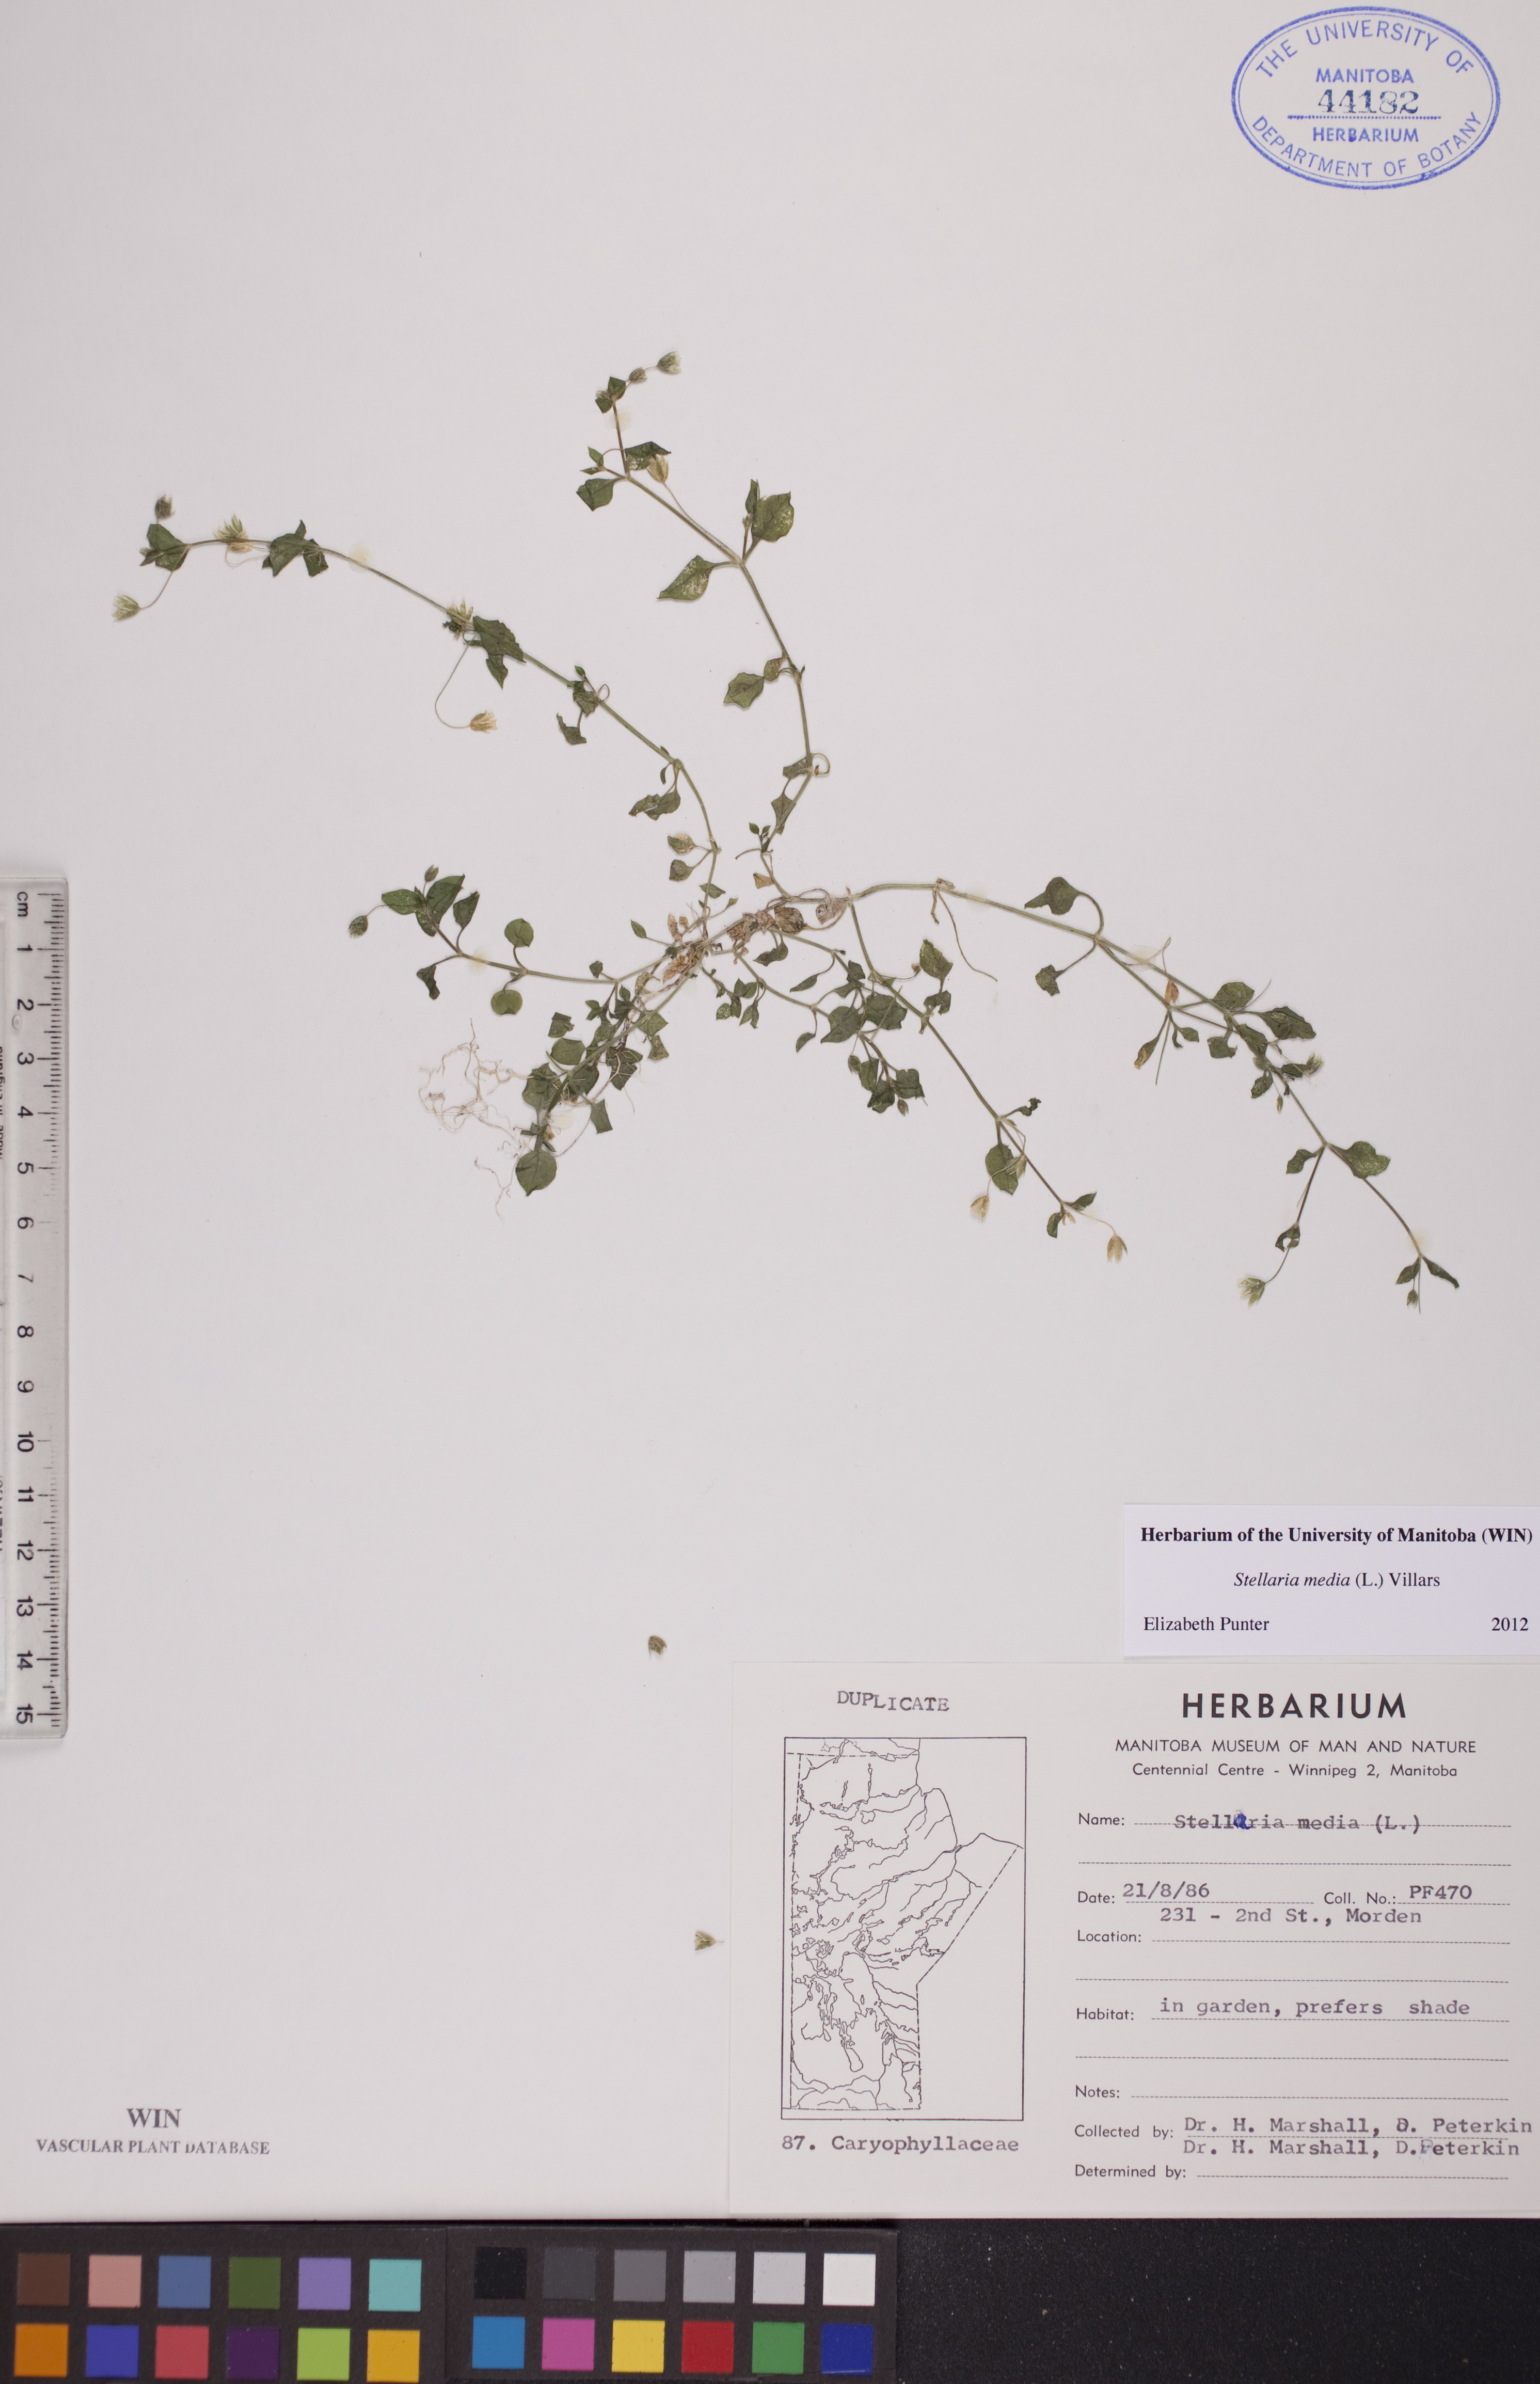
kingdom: Plantae
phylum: Tracheophyta
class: Magnoliopsida
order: Caryophyllales
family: Caryophyllaceae
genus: Stellaria
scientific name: Stellaria media
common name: Common chickweed
